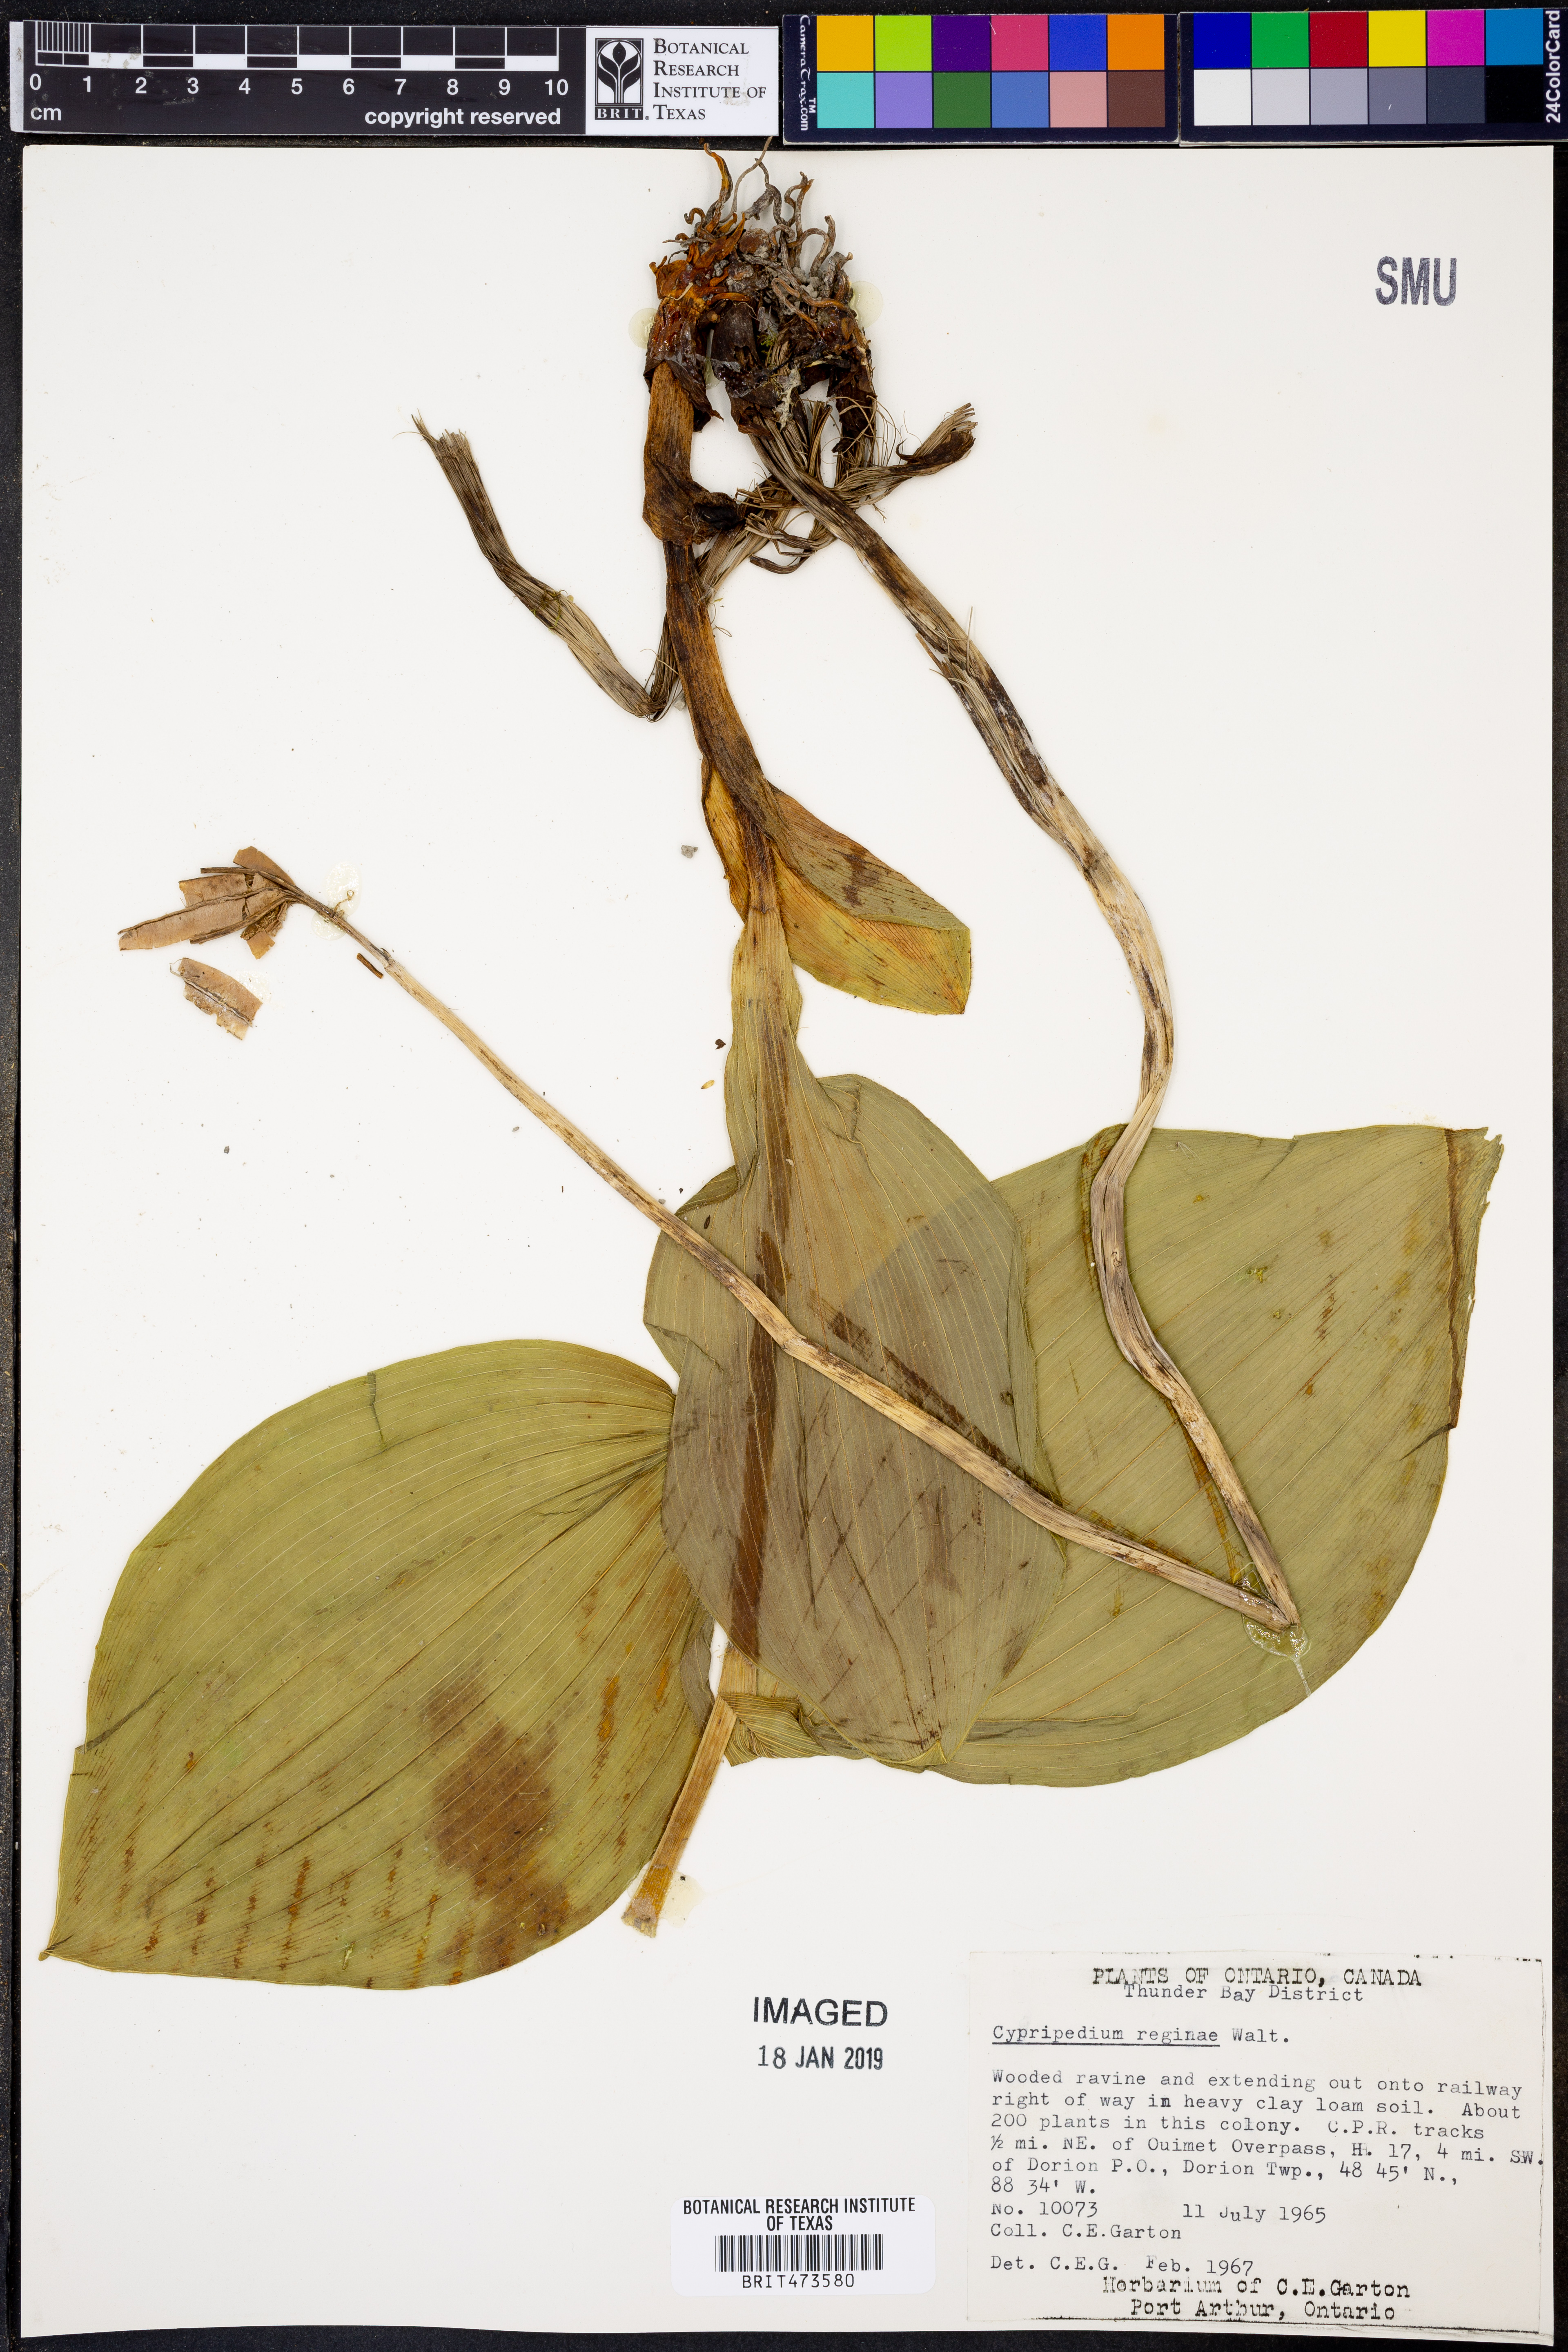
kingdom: Plantae
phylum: Tracheophyta
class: Liliopsida
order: Asparagales
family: Orchidaceae
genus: Cypripedium
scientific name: Cypripedium reginae
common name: Queen lady's-slipper
